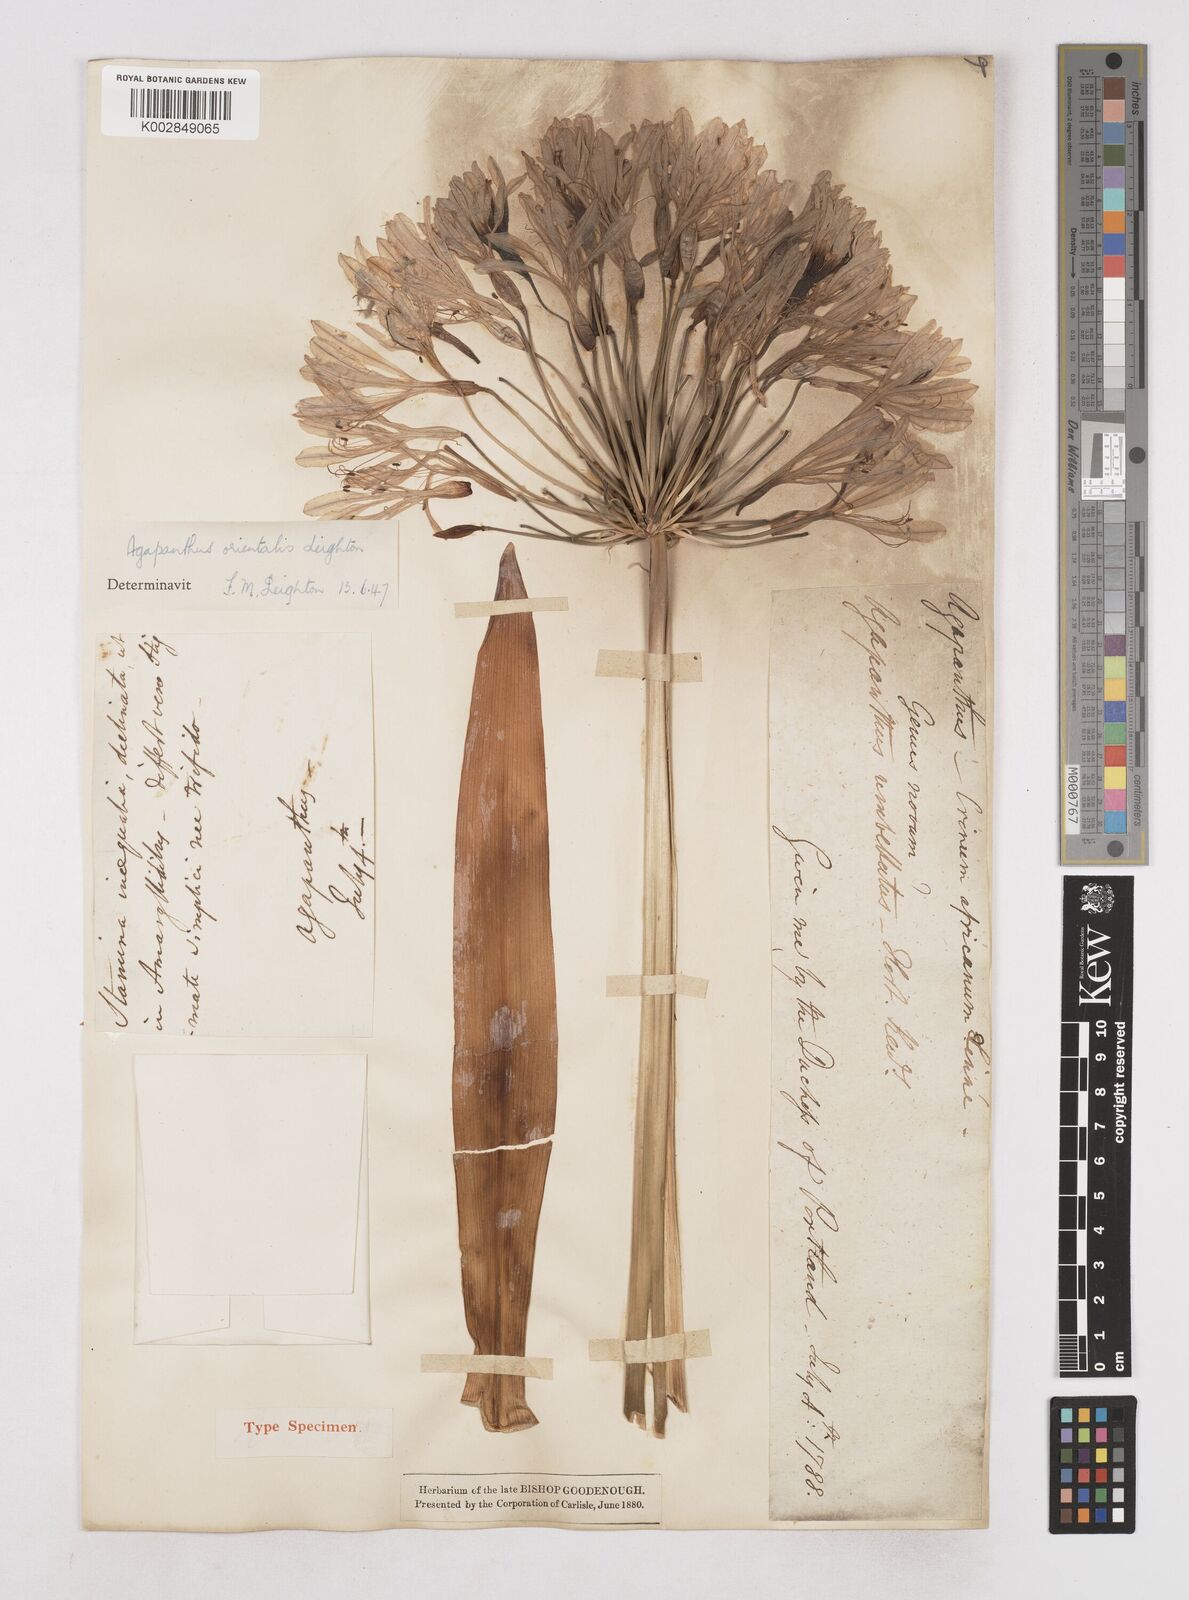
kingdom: Plantae
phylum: Tracheophyta
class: Liliopsida
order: Asparagales
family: Amaryllidaceae
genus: Agapanthus
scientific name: Agapanthus praecox
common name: African-lily
